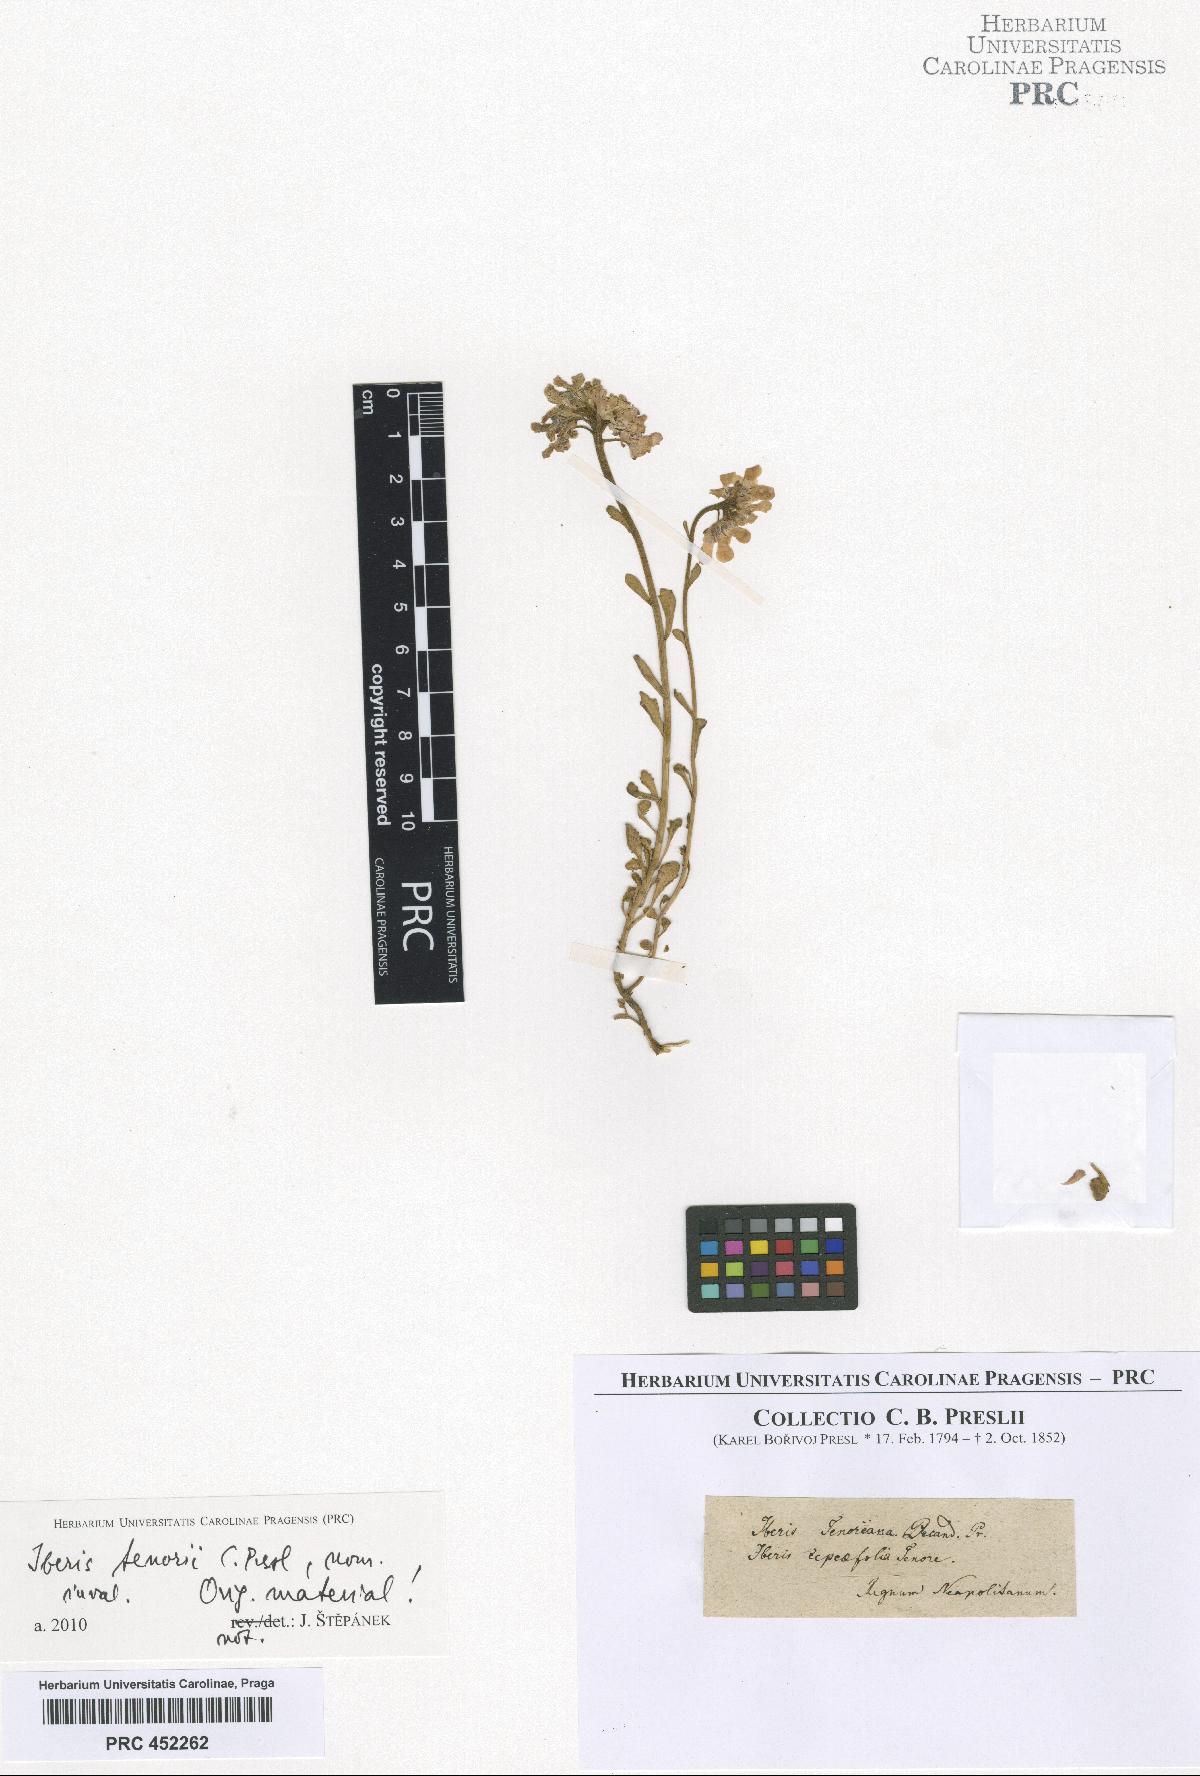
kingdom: Plantae
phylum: Tracheophyta
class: Magnoliopsida
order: Brassicales
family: Brassicaceae
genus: Iberis
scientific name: Iberis tenorei
